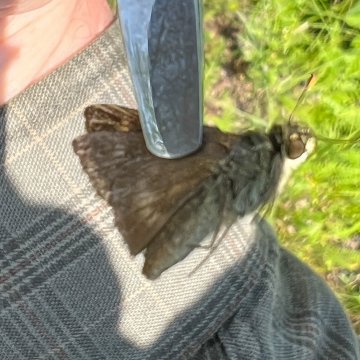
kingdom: Animalia
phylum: Arthropoda
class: Insecta
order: Lepidoptera
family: Hesperiidae
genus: Polites
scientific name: Polites egeremet
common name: Northern Broken-Dash
